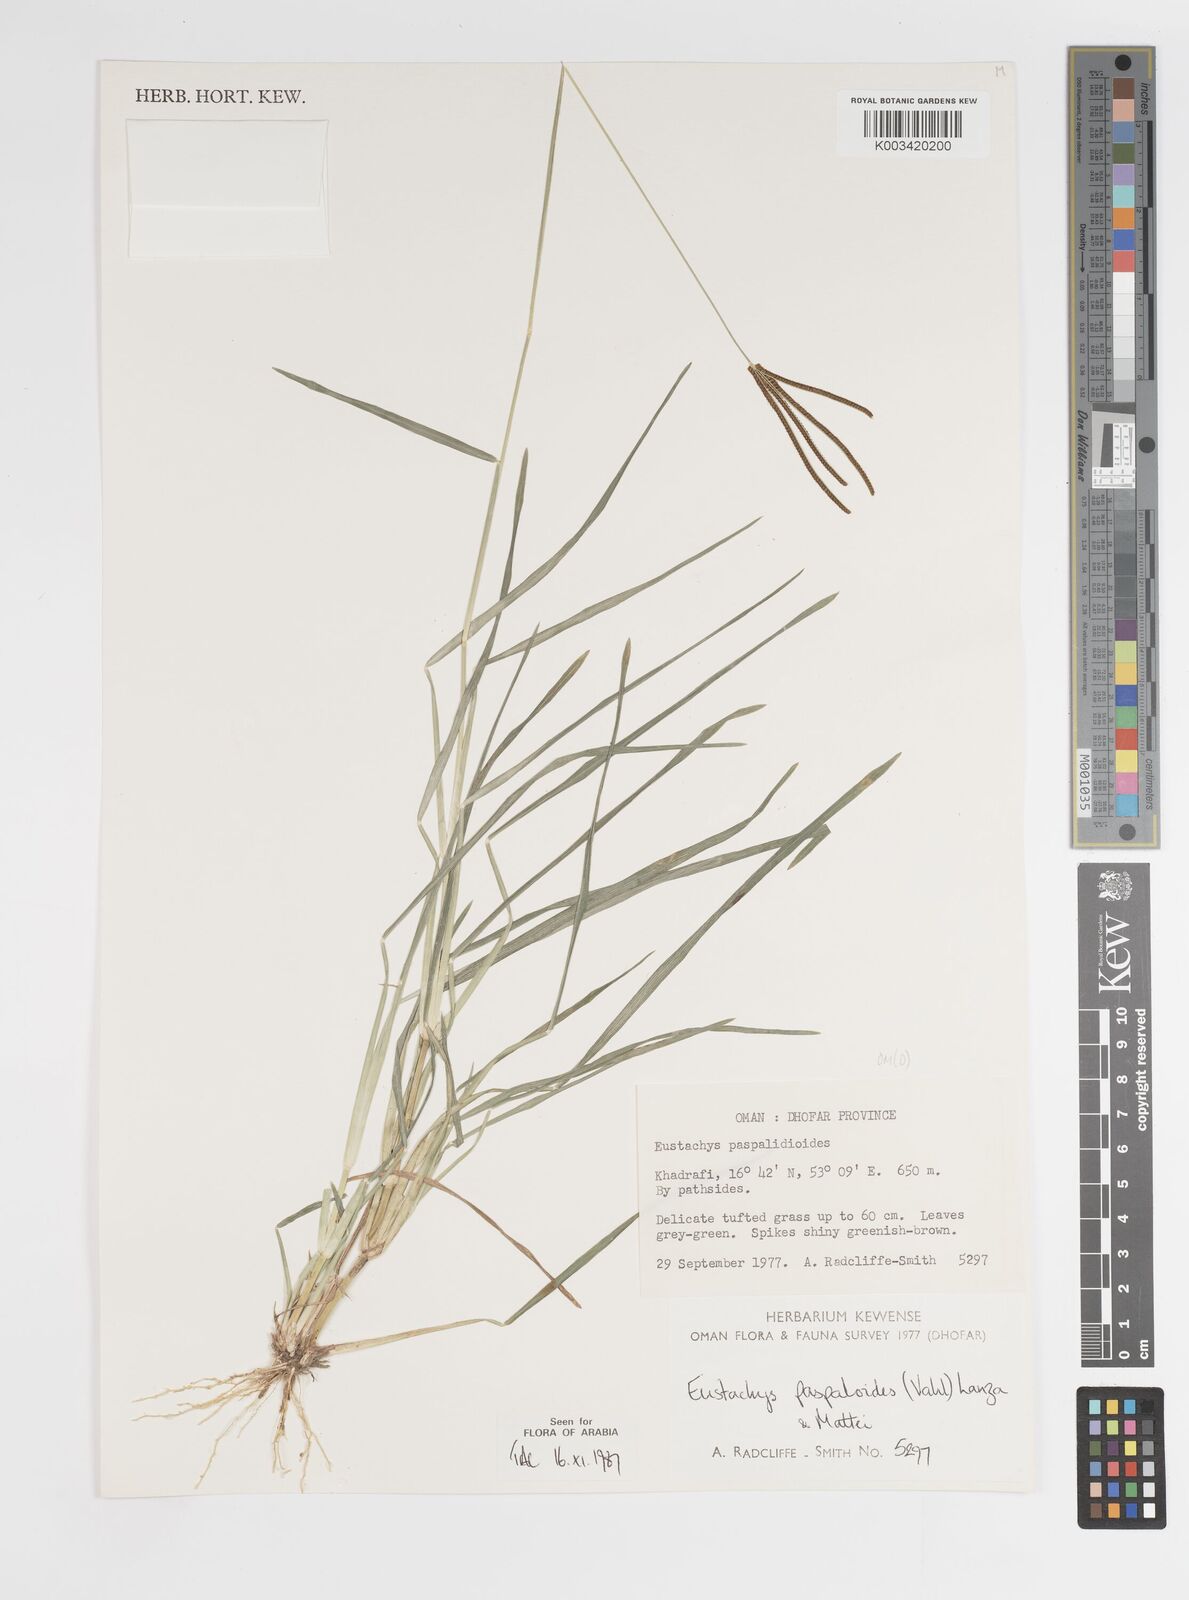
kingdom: Plantae
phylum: Tracheophyta
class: Liliopsida
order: Poales
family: Poaceae
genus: Eustachys
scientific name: Eustachys paspaloides
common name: Caribbean fingergrass
